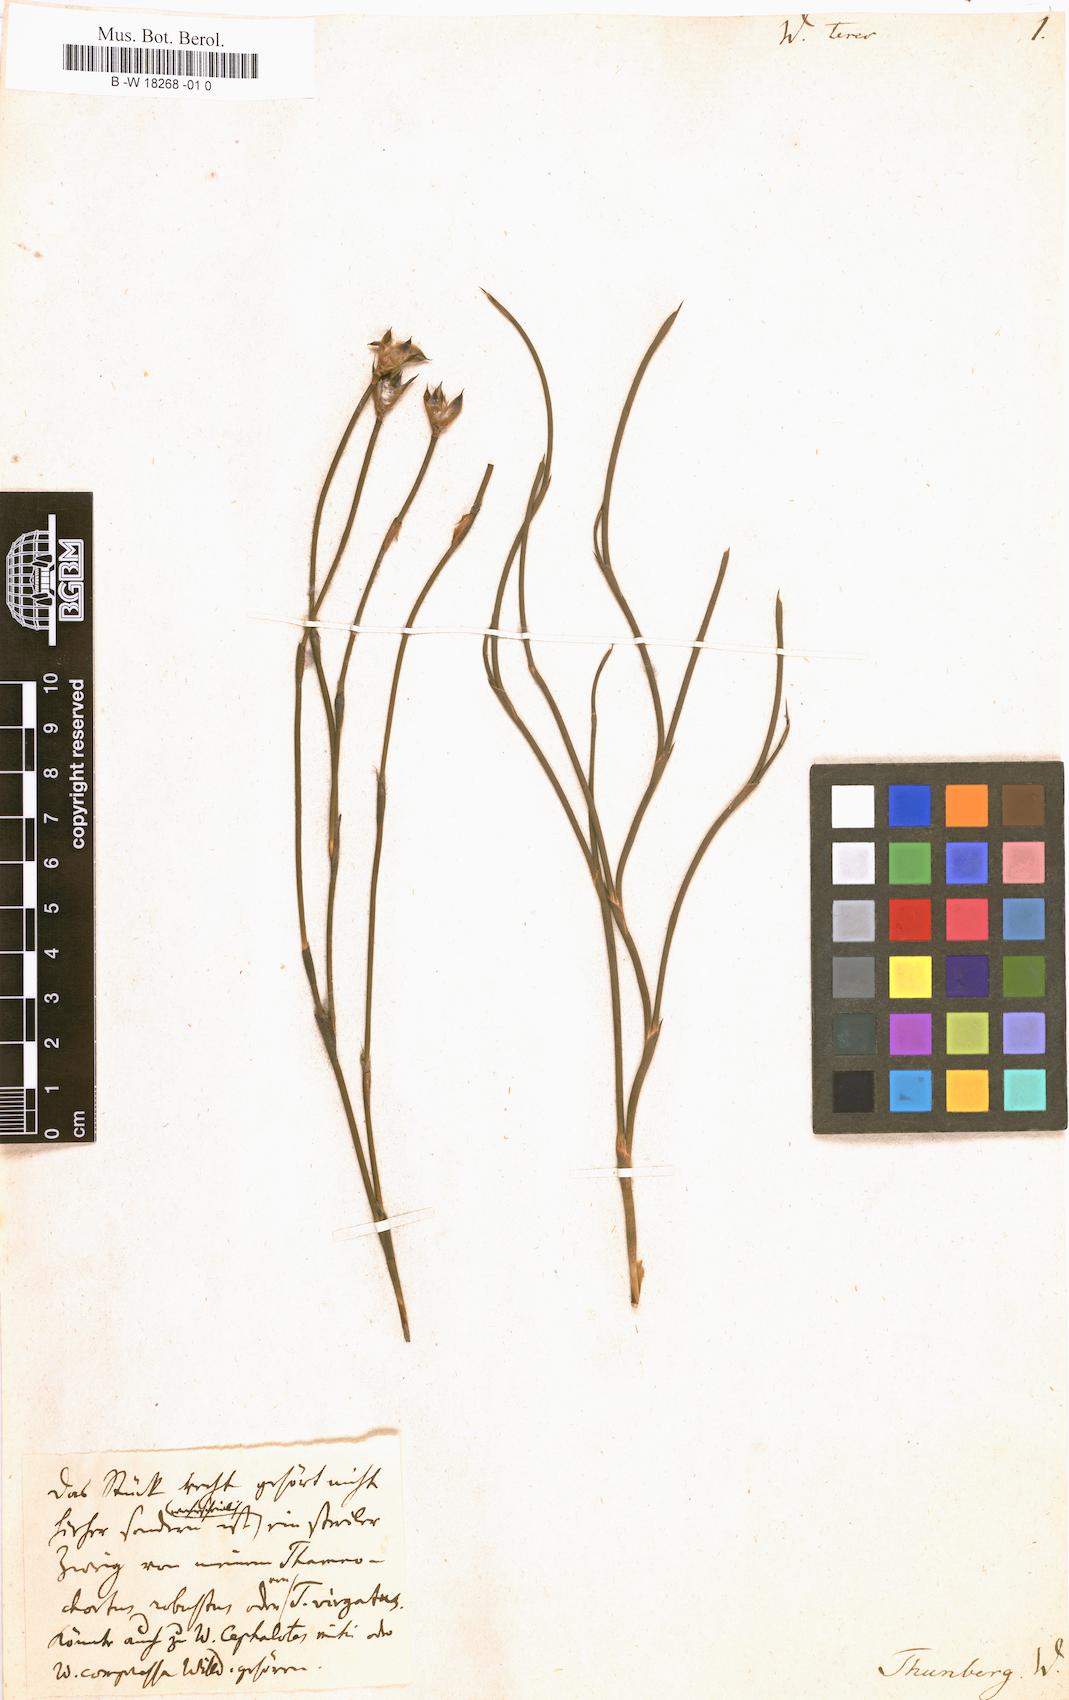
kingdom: Plantae
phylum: Tracheophyta
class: Liliopsida
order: Poales
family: Restionaceae
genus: Willdenowia
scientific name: Willdenowia teres
